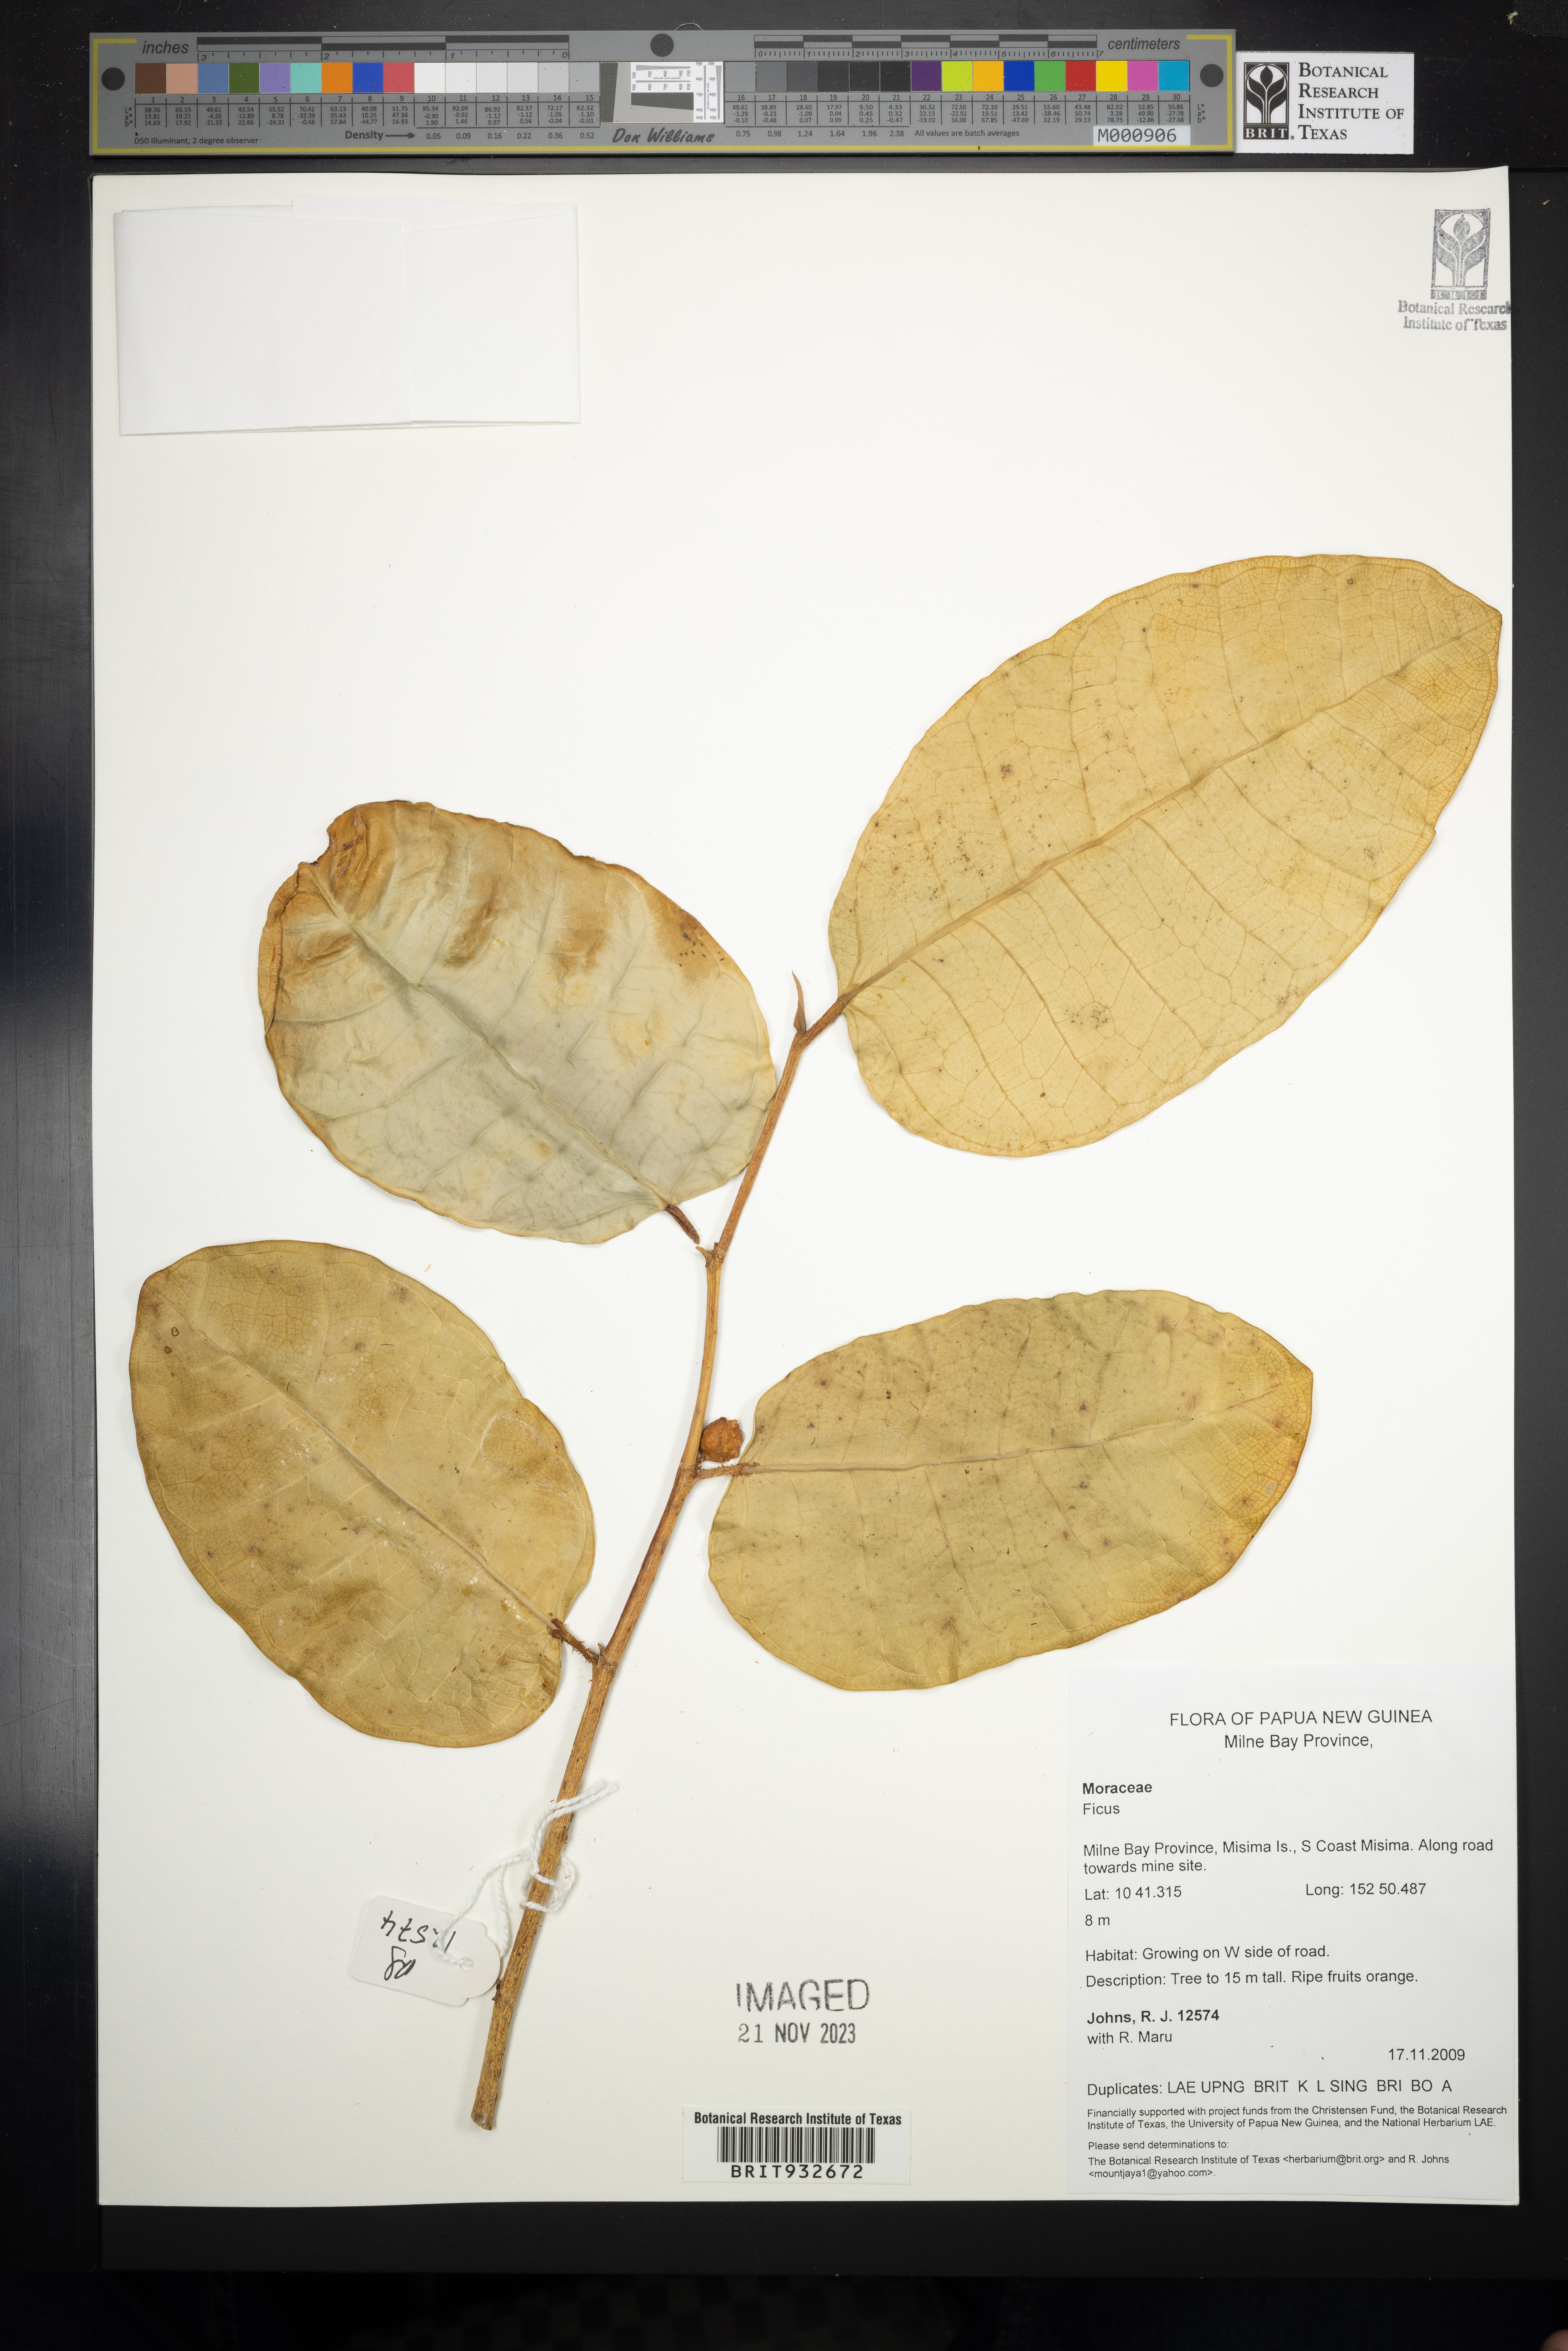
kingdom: Plantae
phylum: Tracheophyta
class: Magnoliopsida
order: Rosales
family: Moraceae
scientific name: Moraceae
